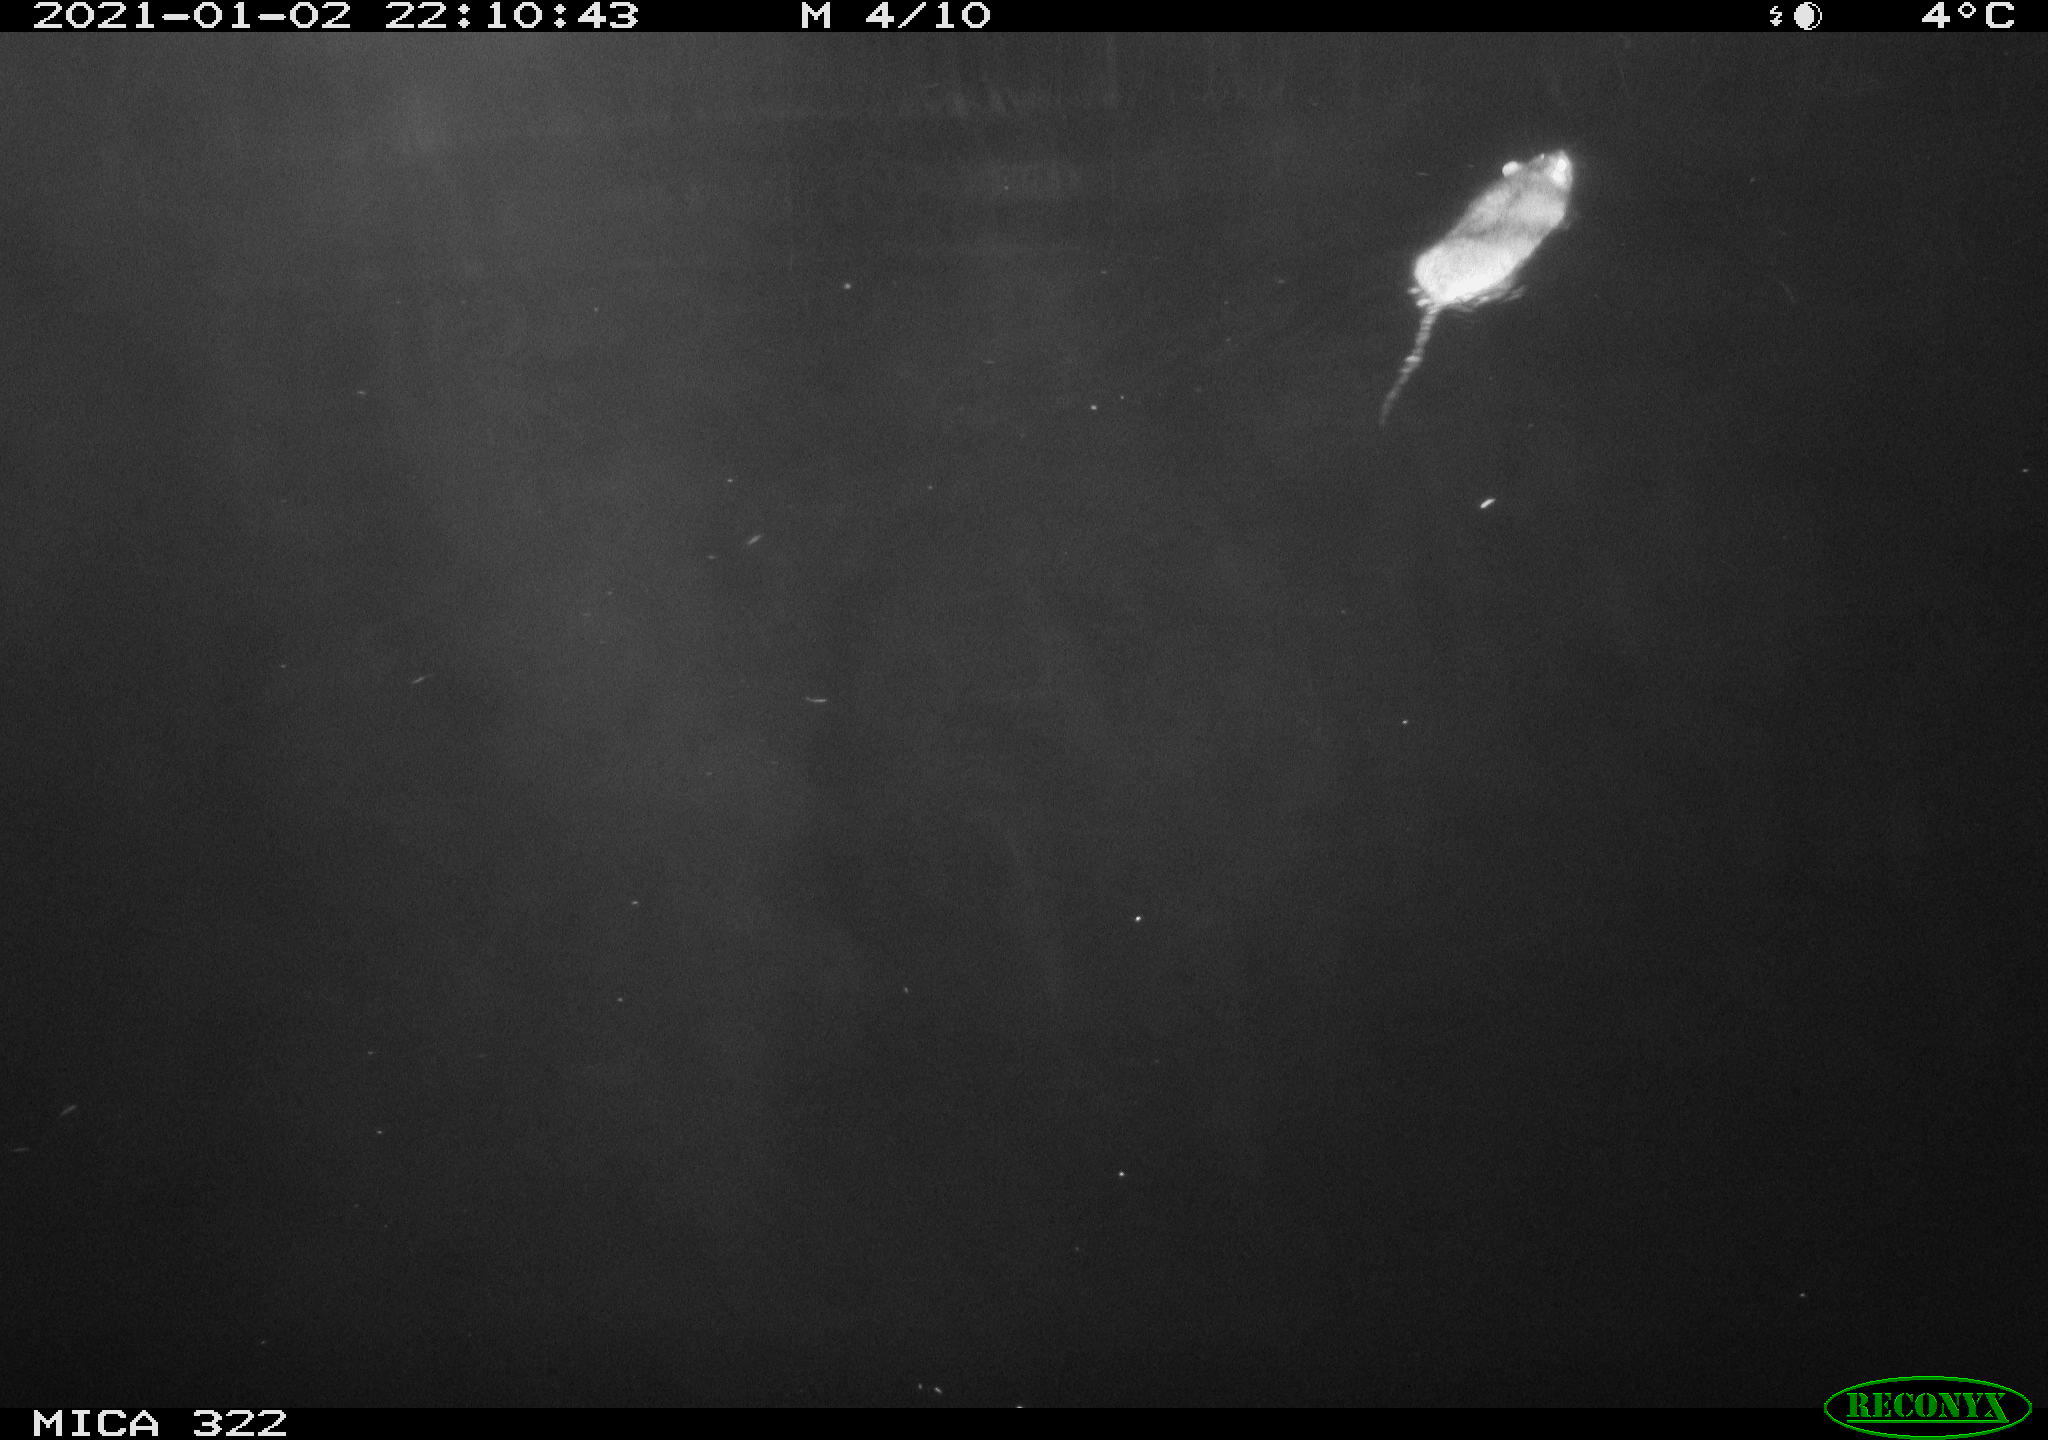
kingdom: Animalia
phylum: Chordata
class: Mammalia
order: Rodentia
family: Muridae
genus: Rattus
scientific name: Rattus norvegicus
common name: Brown rat
